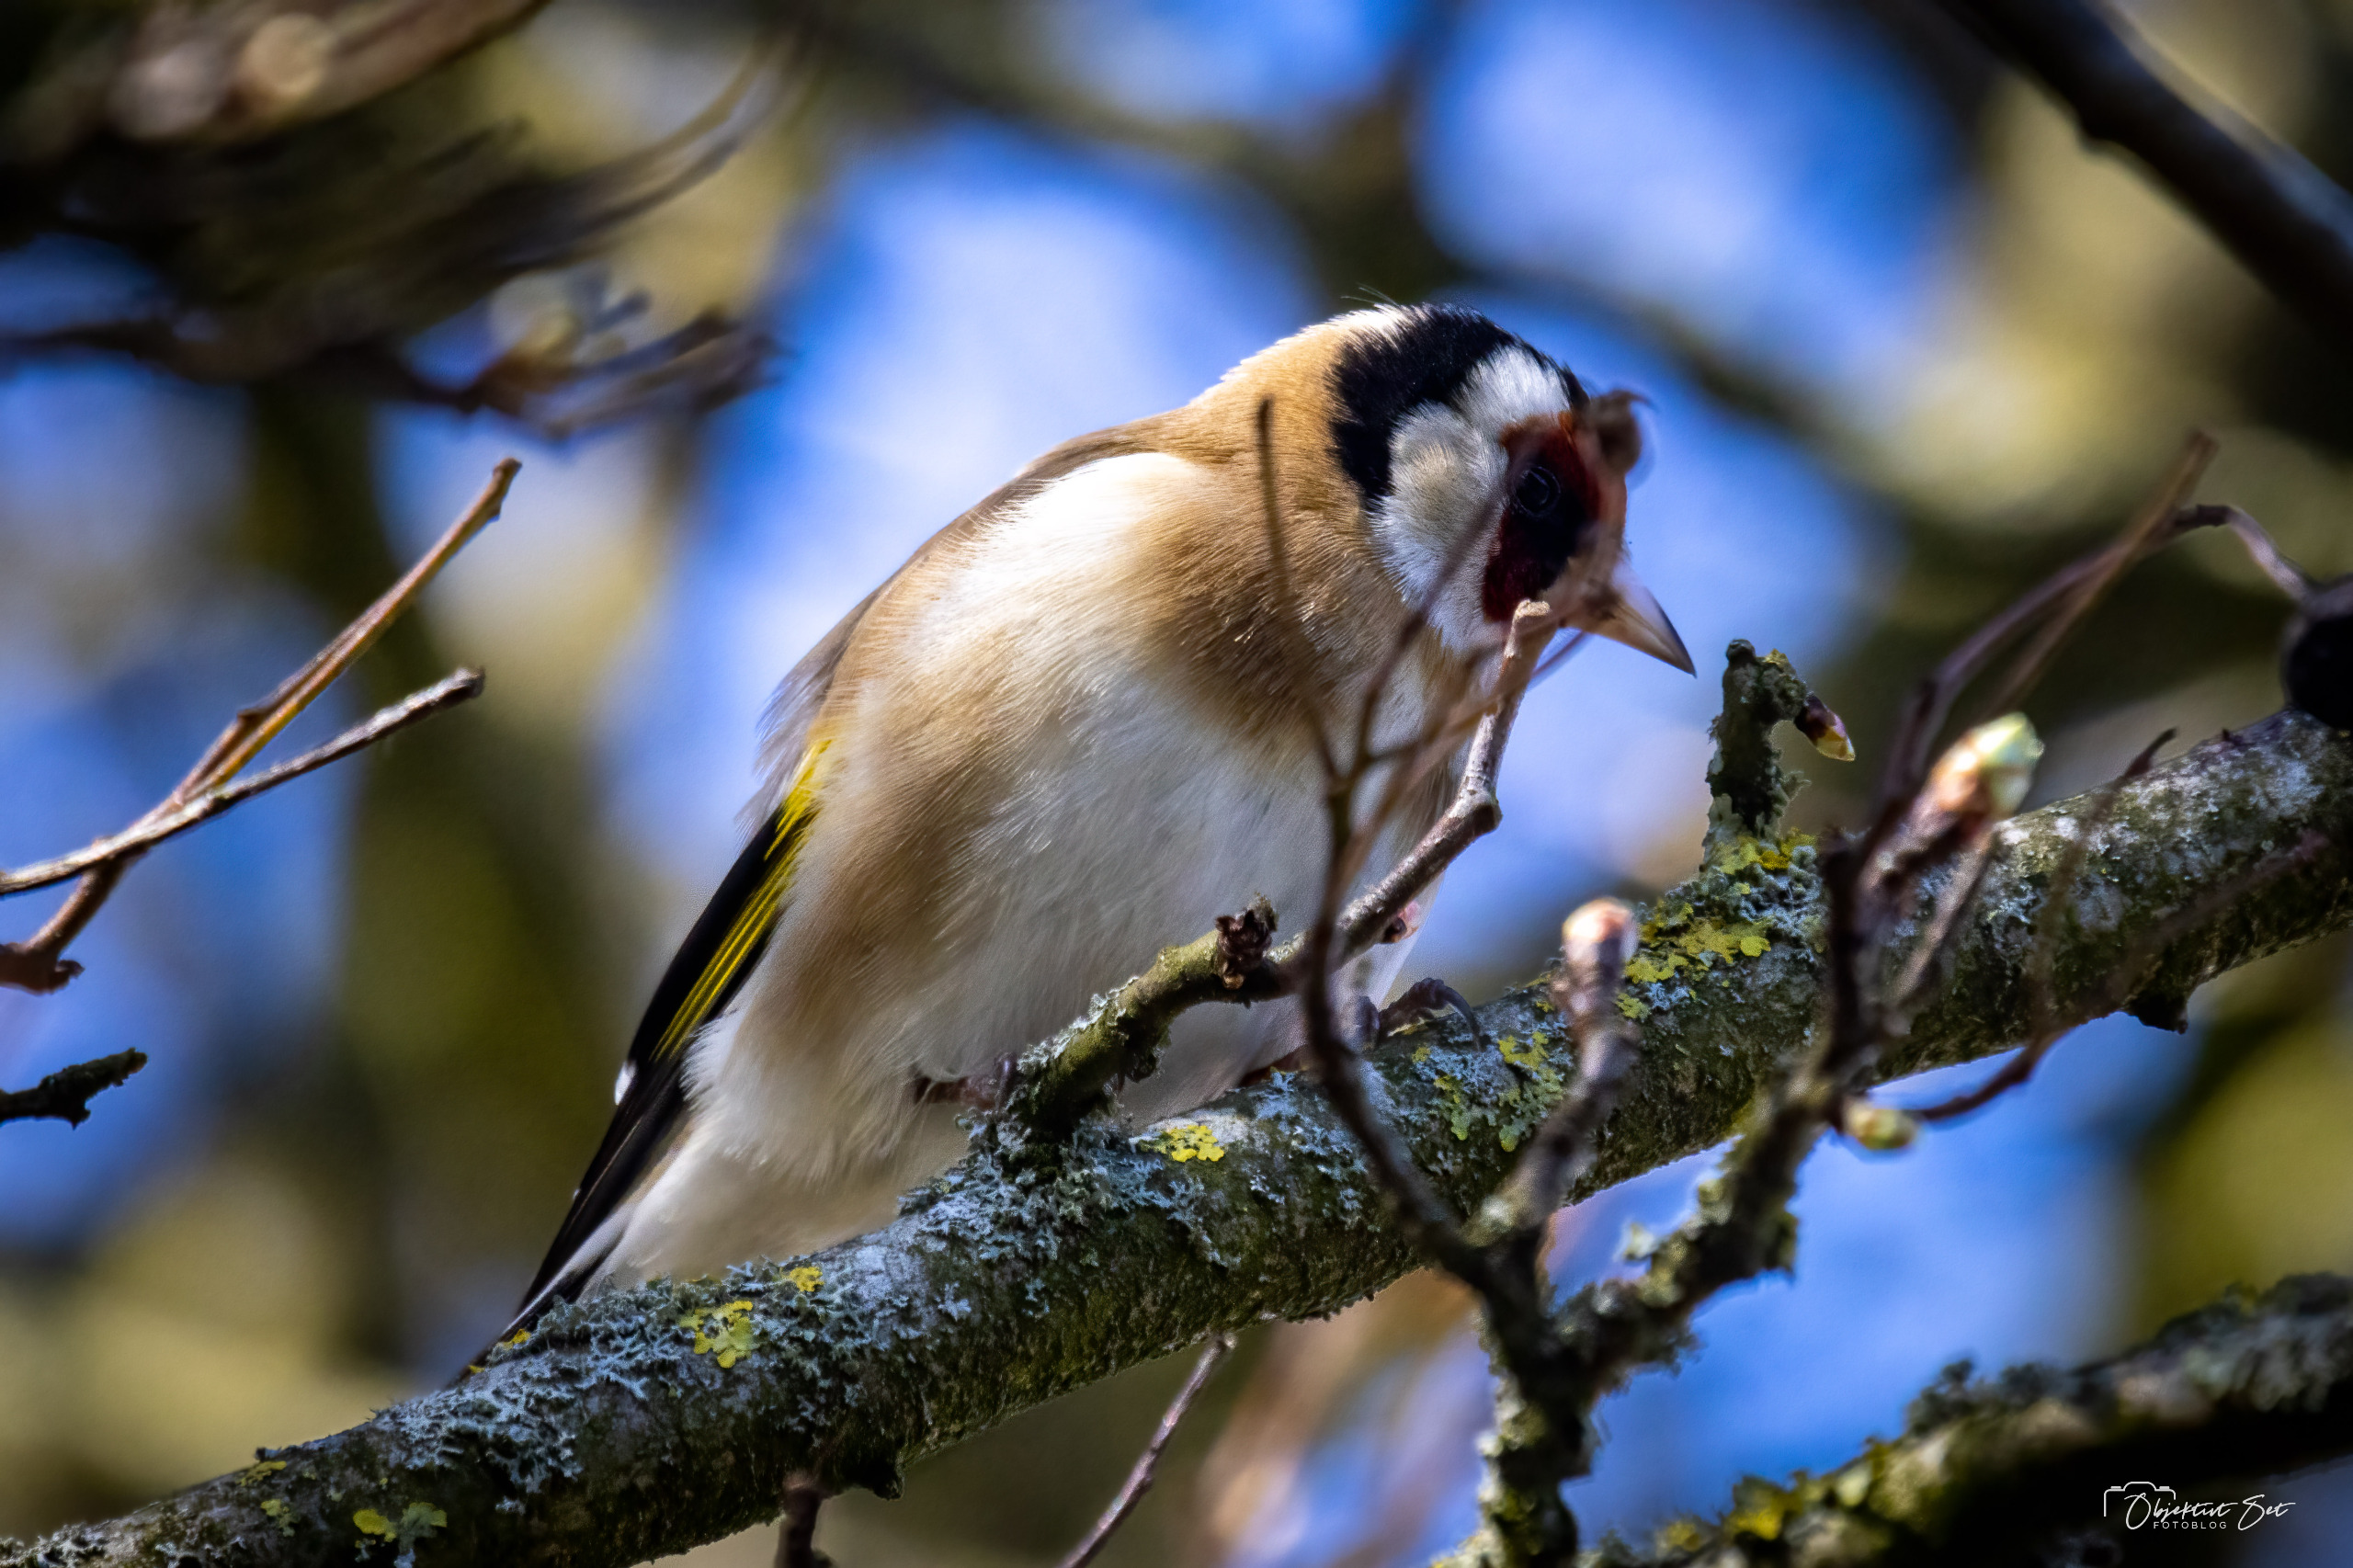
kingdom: Animalia
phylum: Chordata
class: Aves
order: Passeriformes
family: Fringillidae
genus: Carduelis
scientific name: Carduelis carduelis
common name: Stillits
